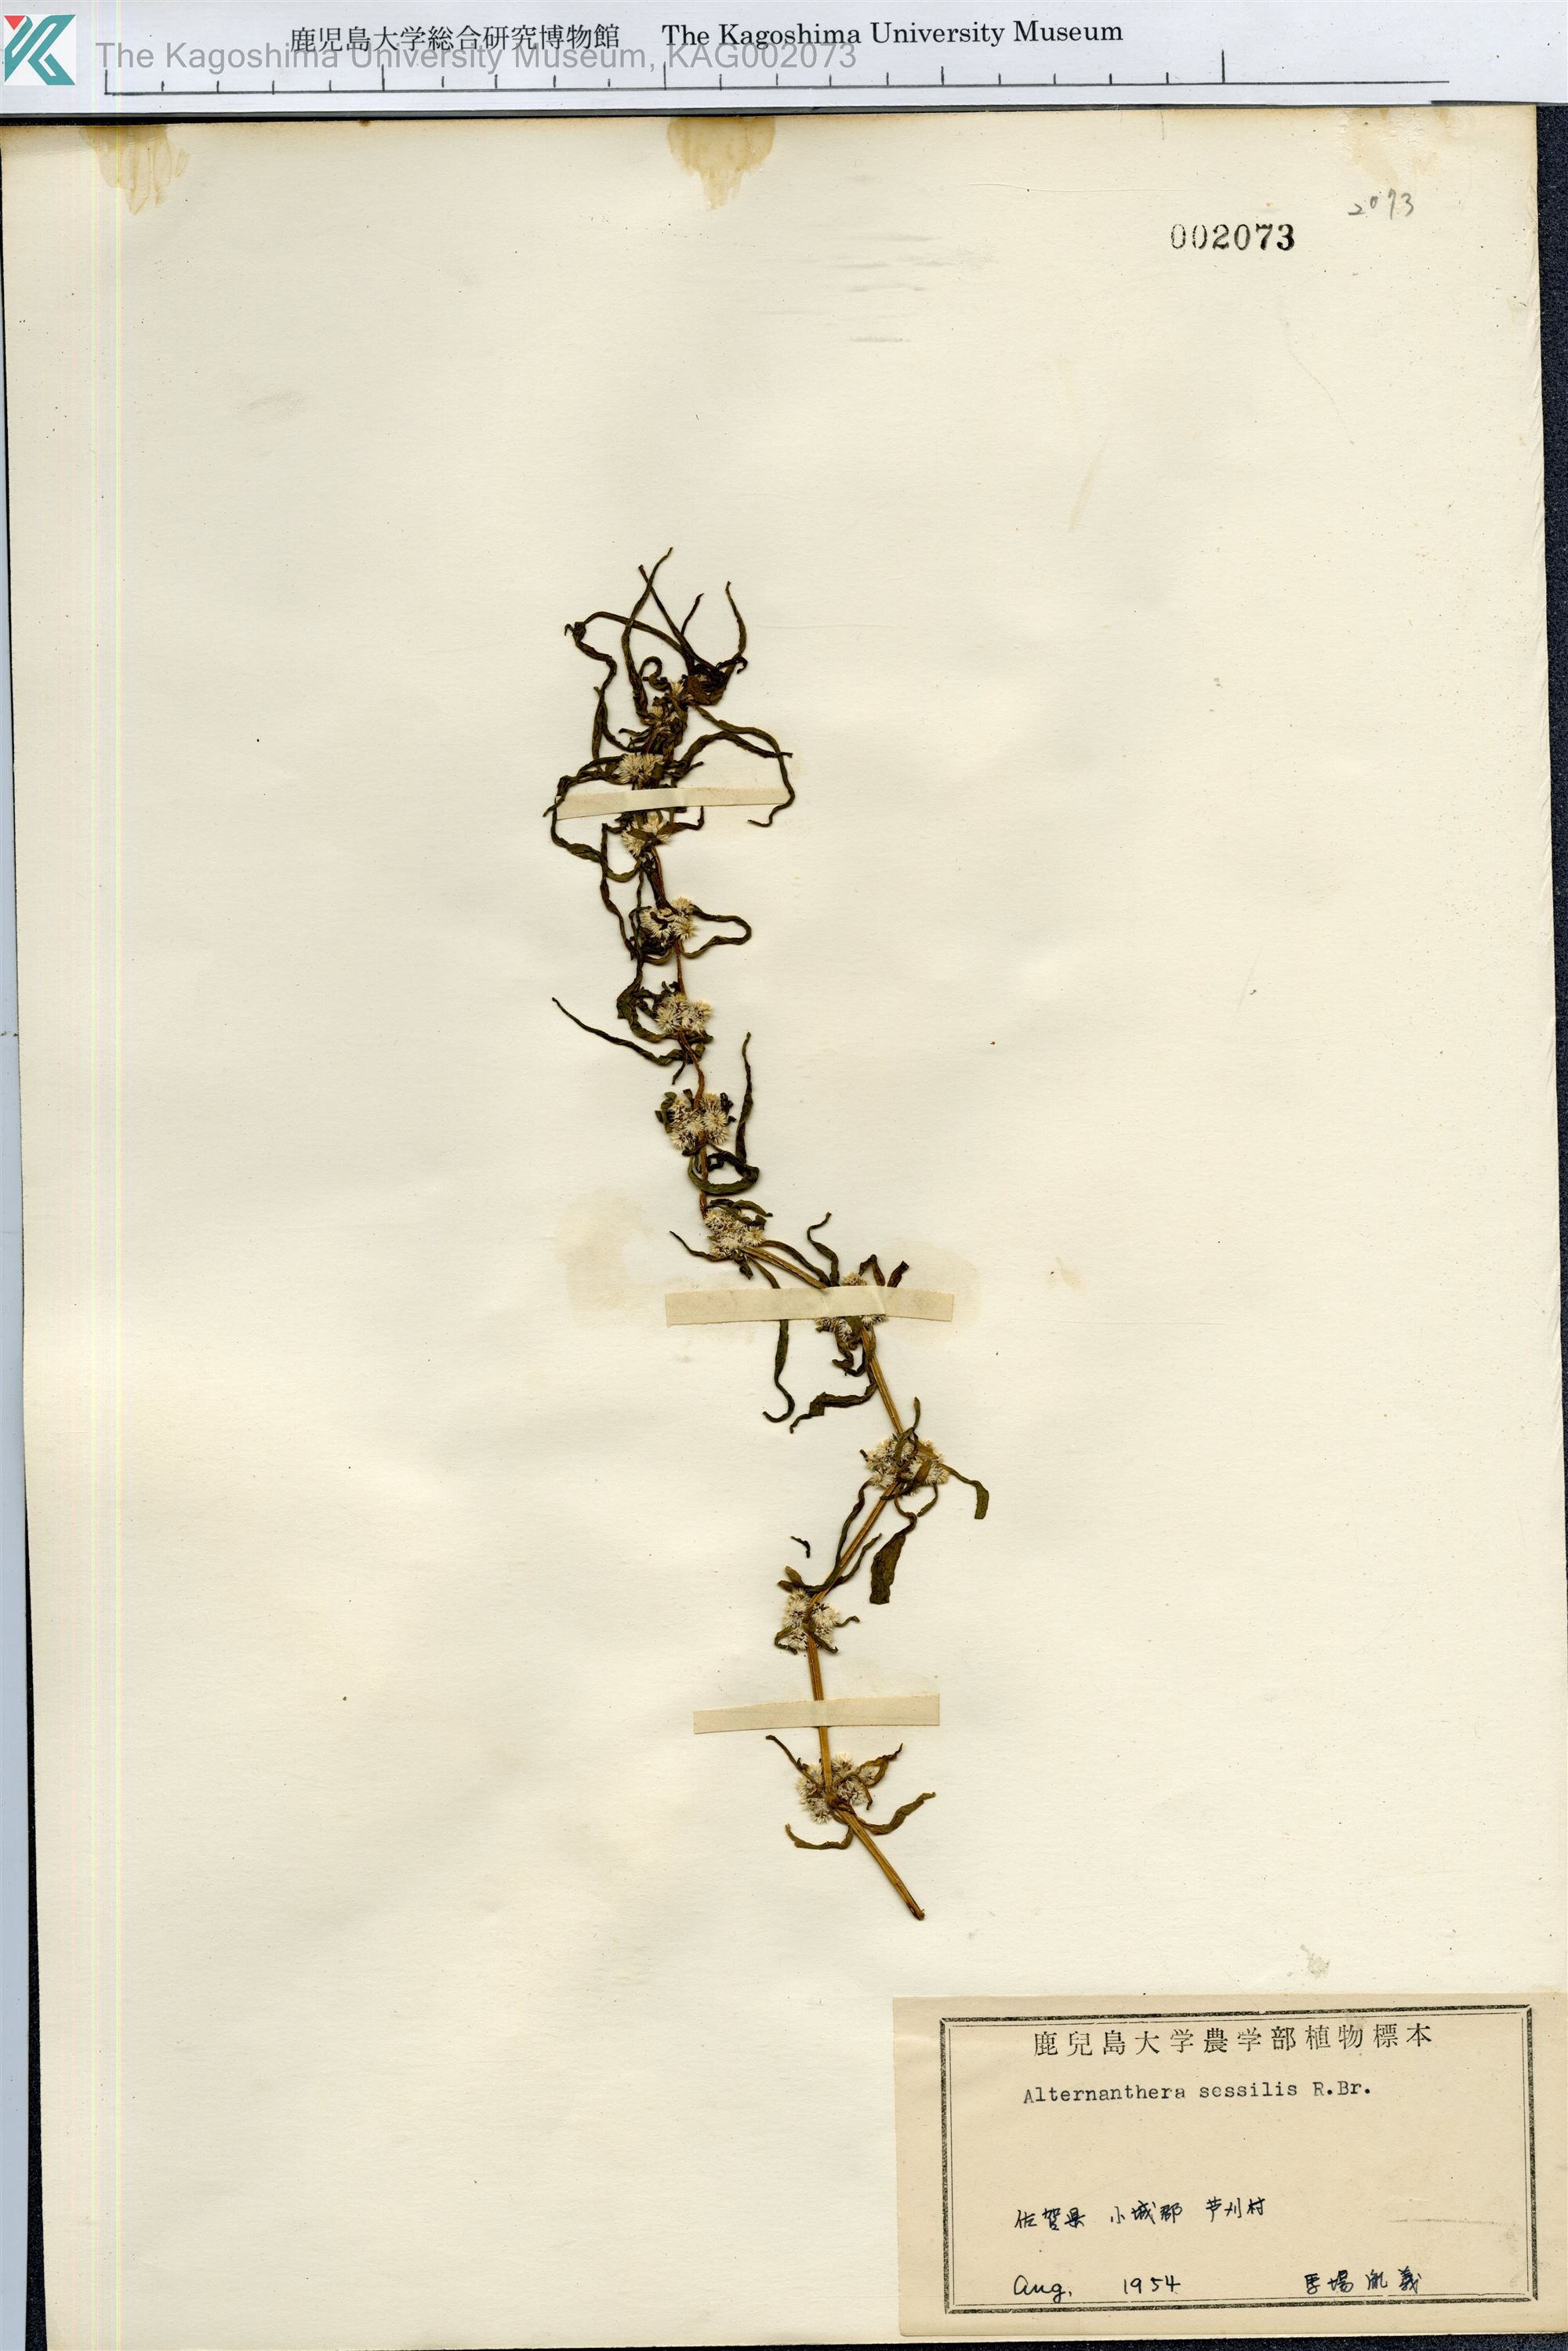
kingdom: Plantae
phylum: Tracheophyta
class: Magnoliopsida
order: Caryophyllales
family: Amaranthaceae
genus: Alternanthera
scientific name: Alternanthera sessilis
